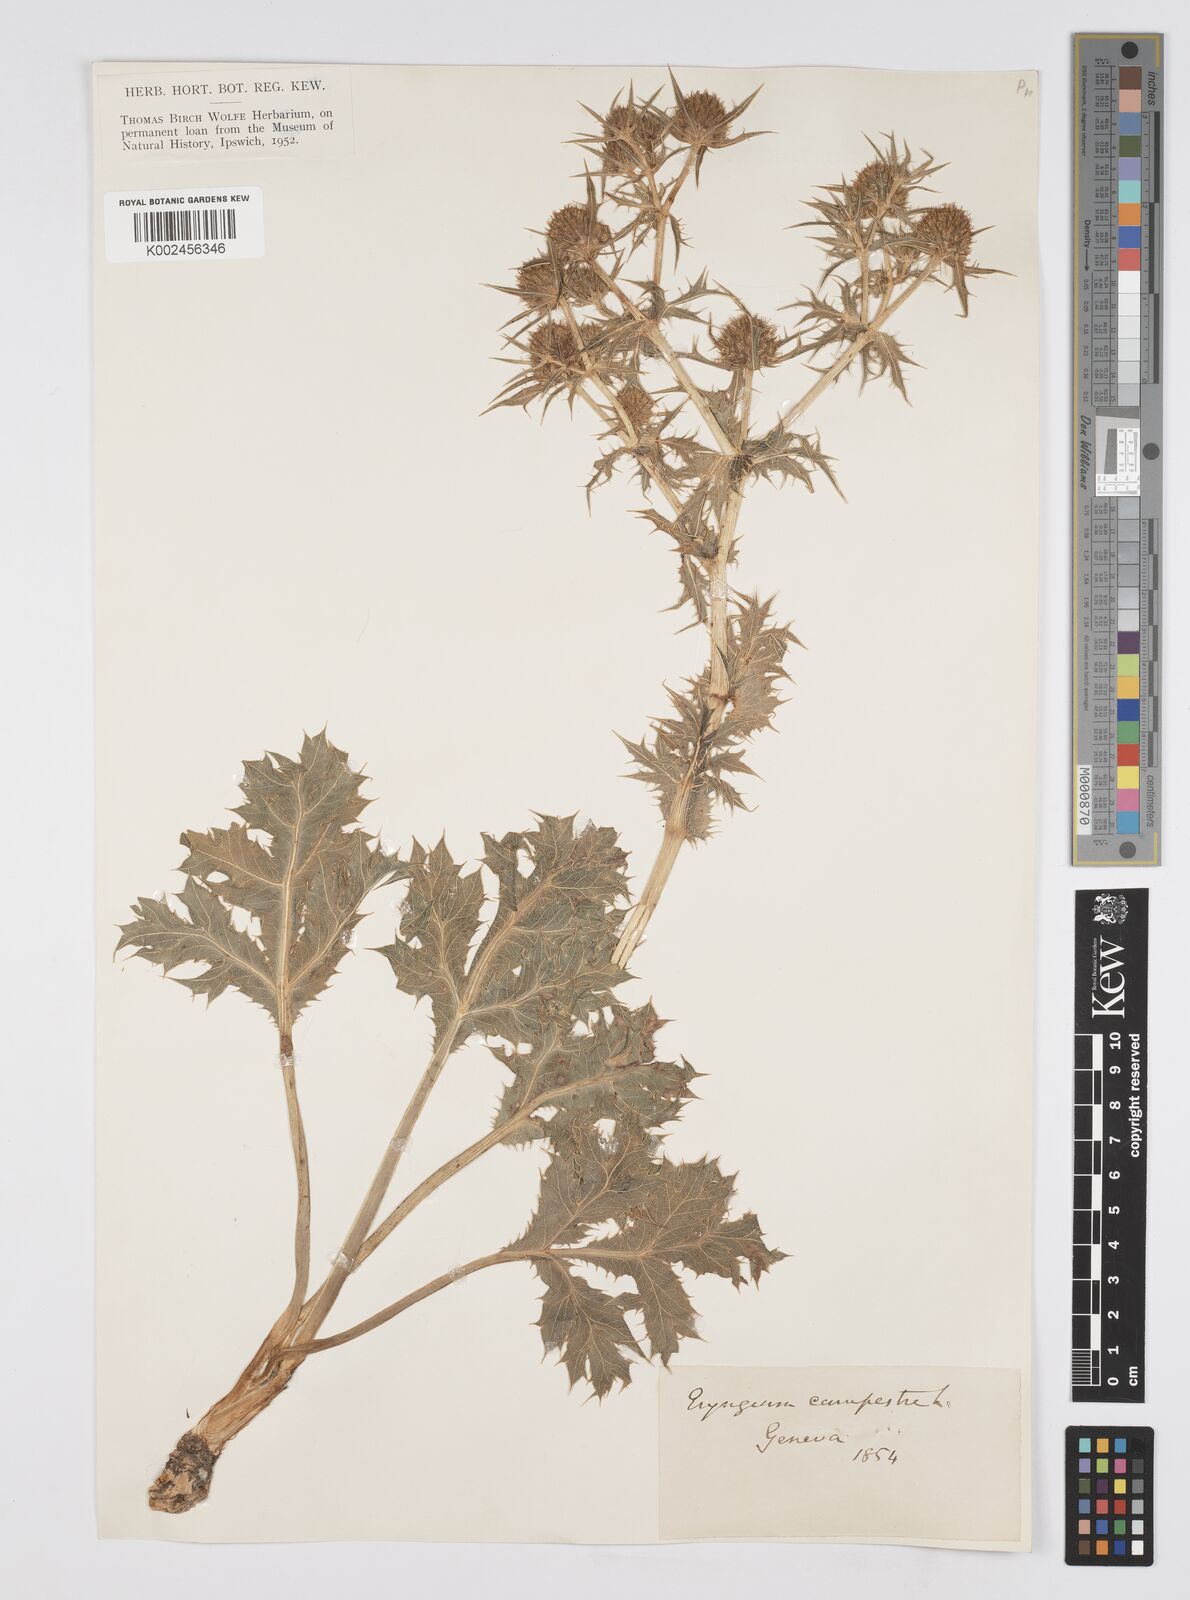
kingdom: Plantae
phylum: Tracheophyta
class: Magnoliopsida
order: Apiales
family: Apiaceae
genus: Eryngium
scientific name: Eryngium campestre
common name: Field eryngo
